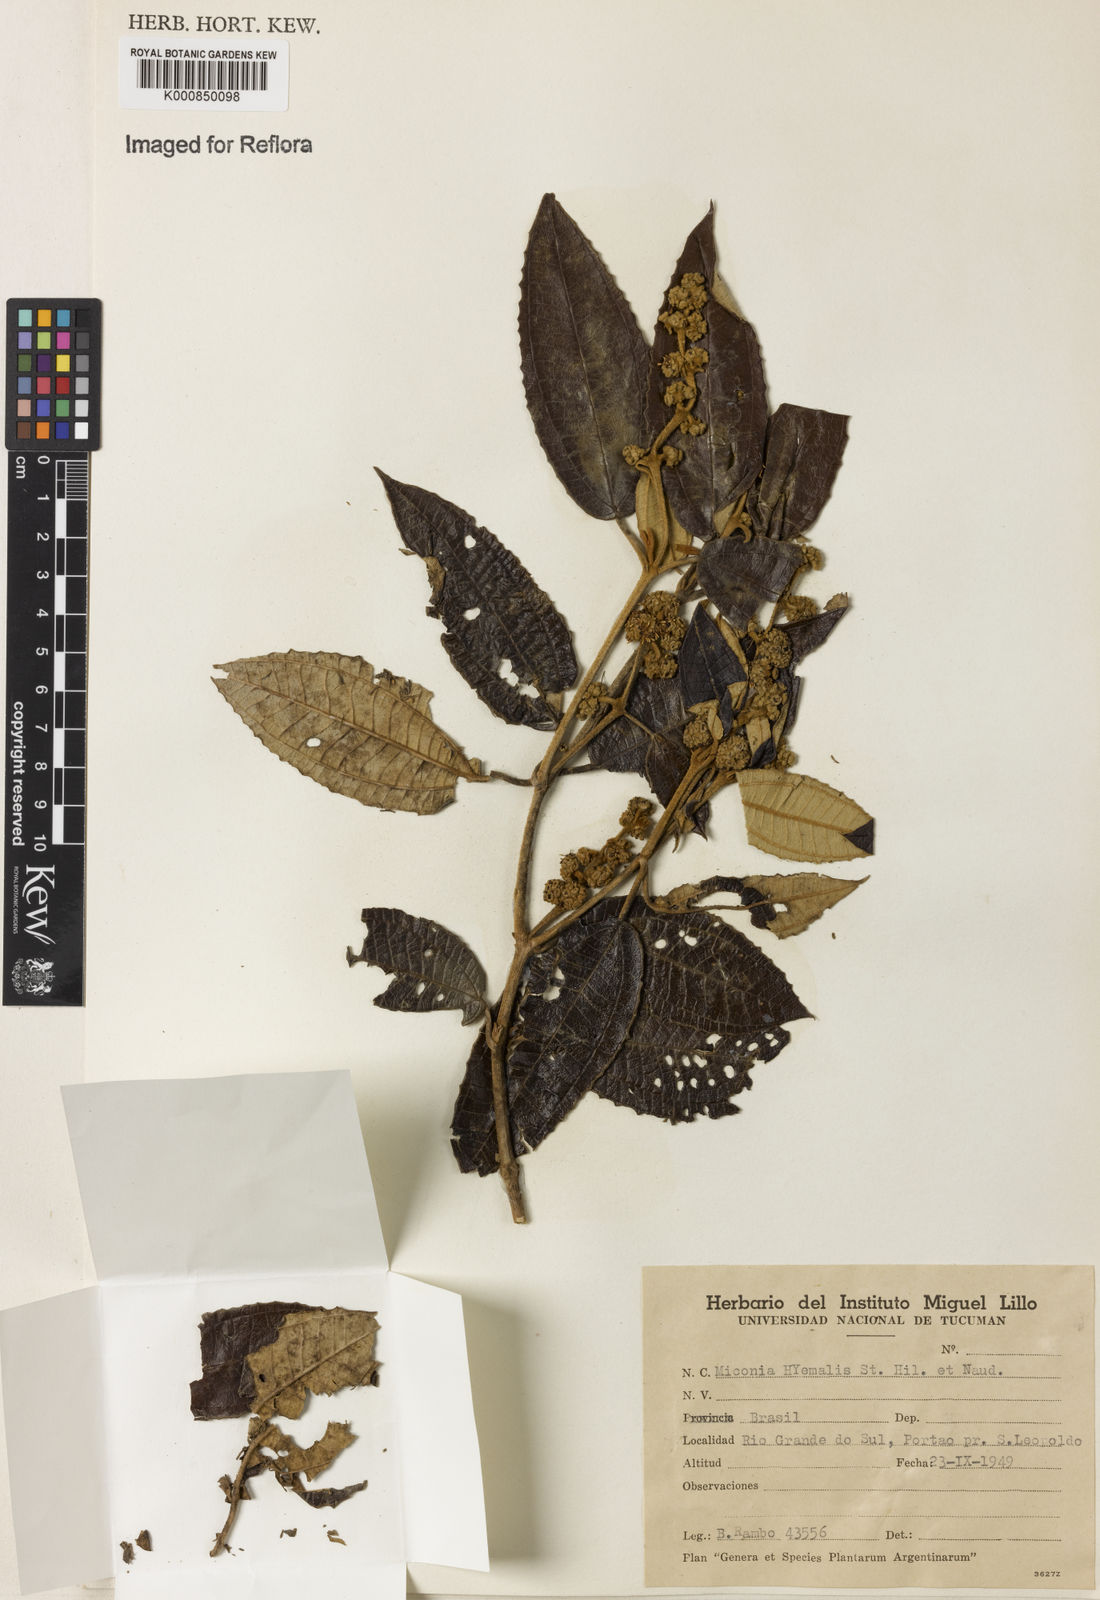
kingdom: Plantae
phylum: Tracheophyta
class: Magnoliopsida
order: Myrtales
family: Melastomataceae
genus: Miconia
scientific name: Miconia hyemalis
